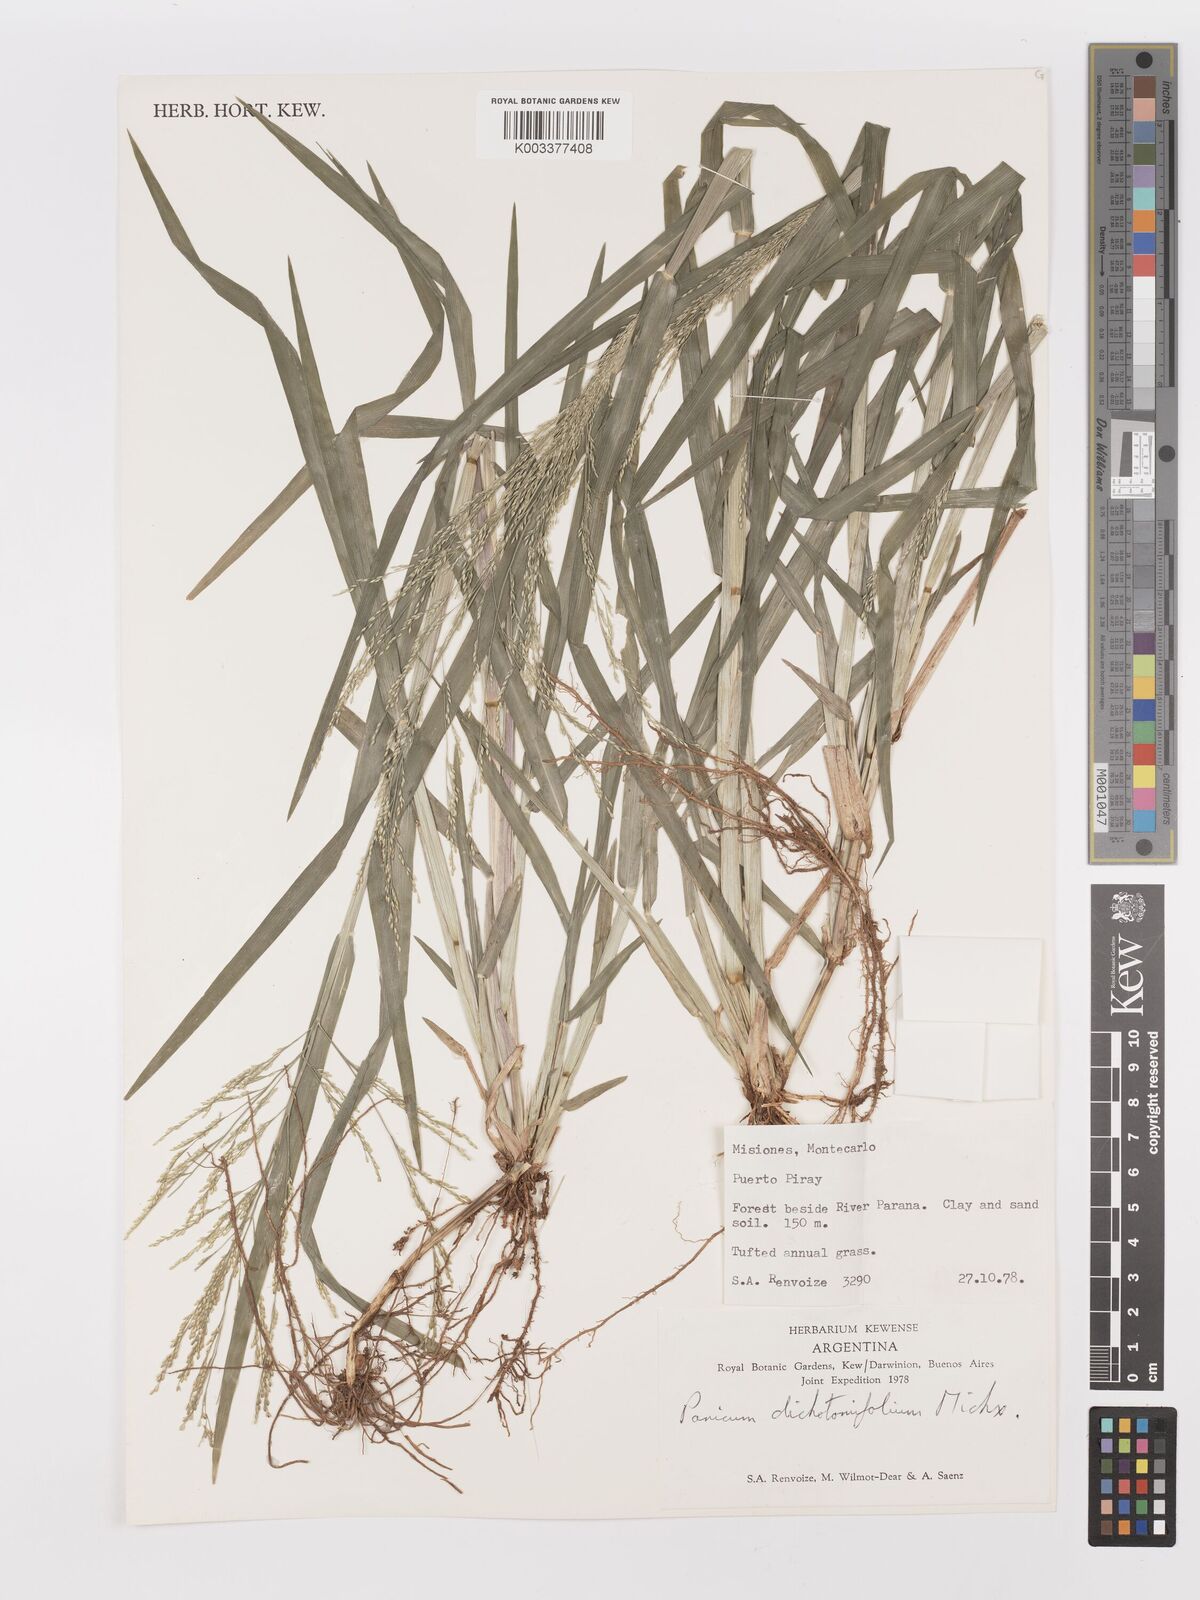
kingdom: Plantae
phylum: Tracheophyta
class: Liliopsida
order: Poales
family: Poaceae
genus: Panicum
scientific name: Panicum dichotomiflorum
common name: Autumn millet
